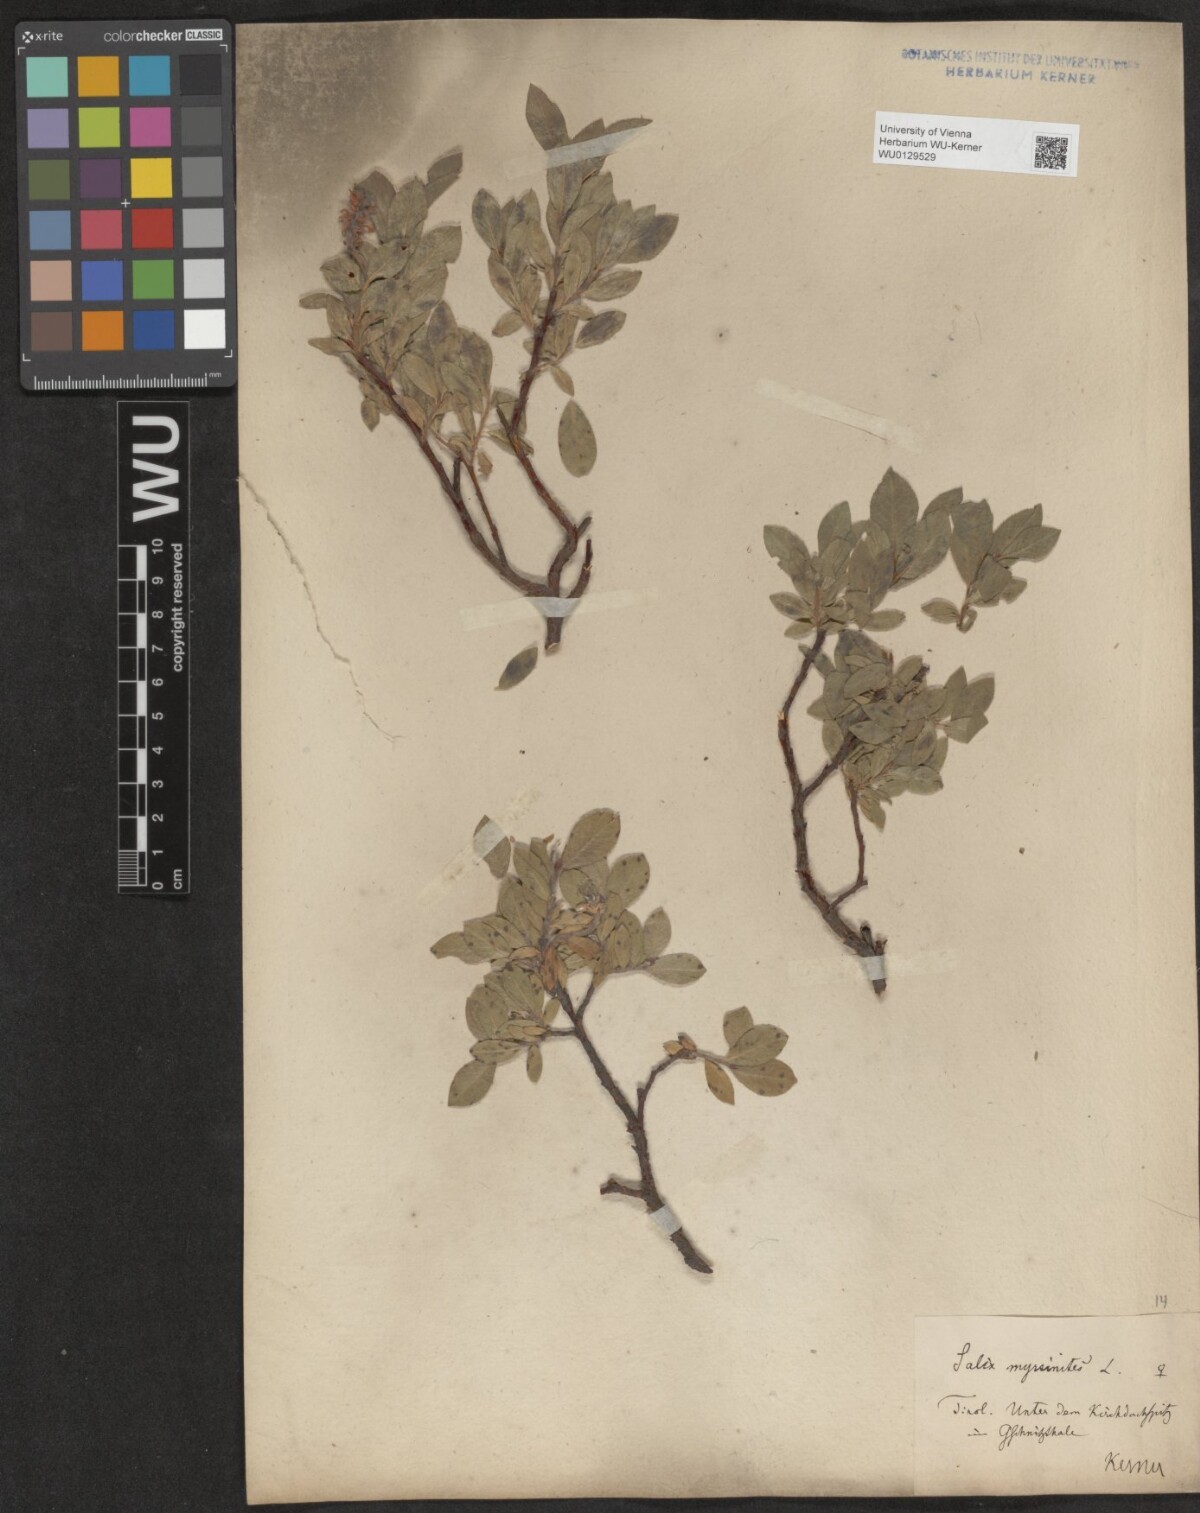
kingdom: Plantae
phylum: Tracheophyta
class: Magnoliopsida
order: Malpighiales
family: Salicaceae
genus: Salix
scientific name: Salix breviserrata
